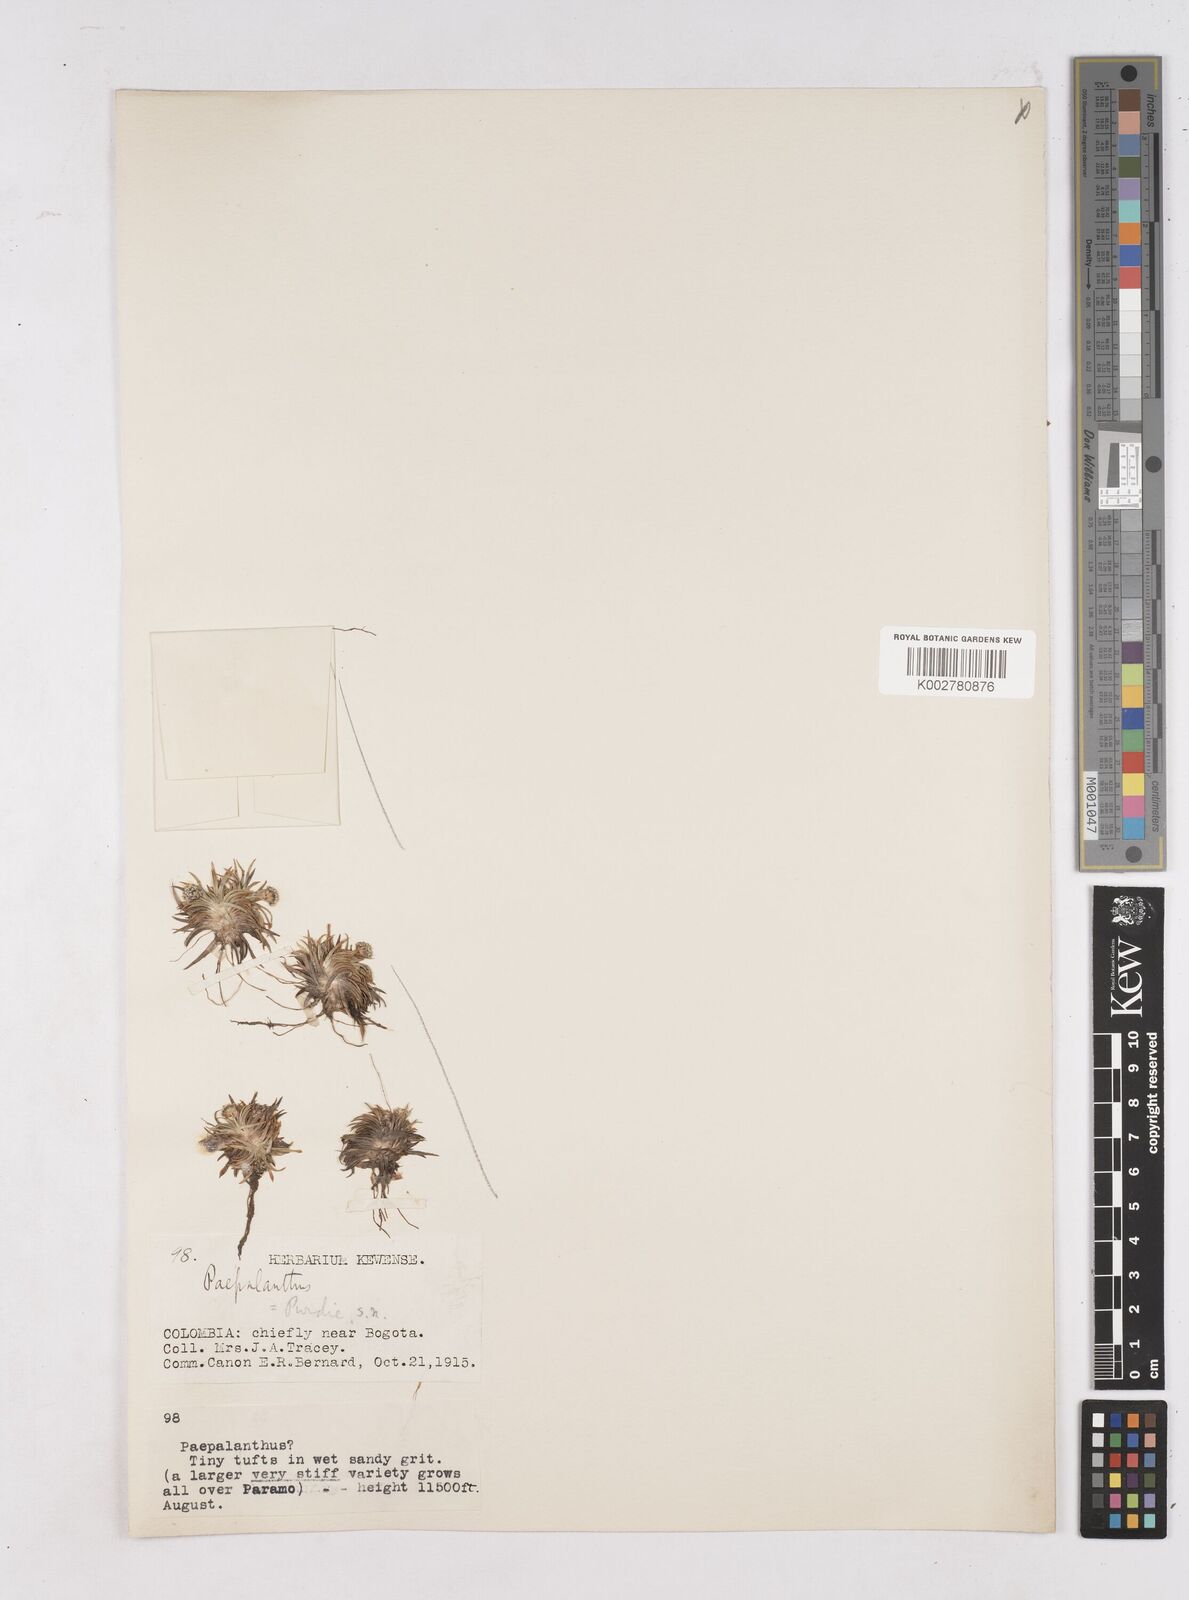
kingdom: Plantae
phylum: Tracheophyta
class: Liliopsida
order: Poales
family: Eriocaulaceae
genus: Paepalanthus
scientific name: Paepalanthus
